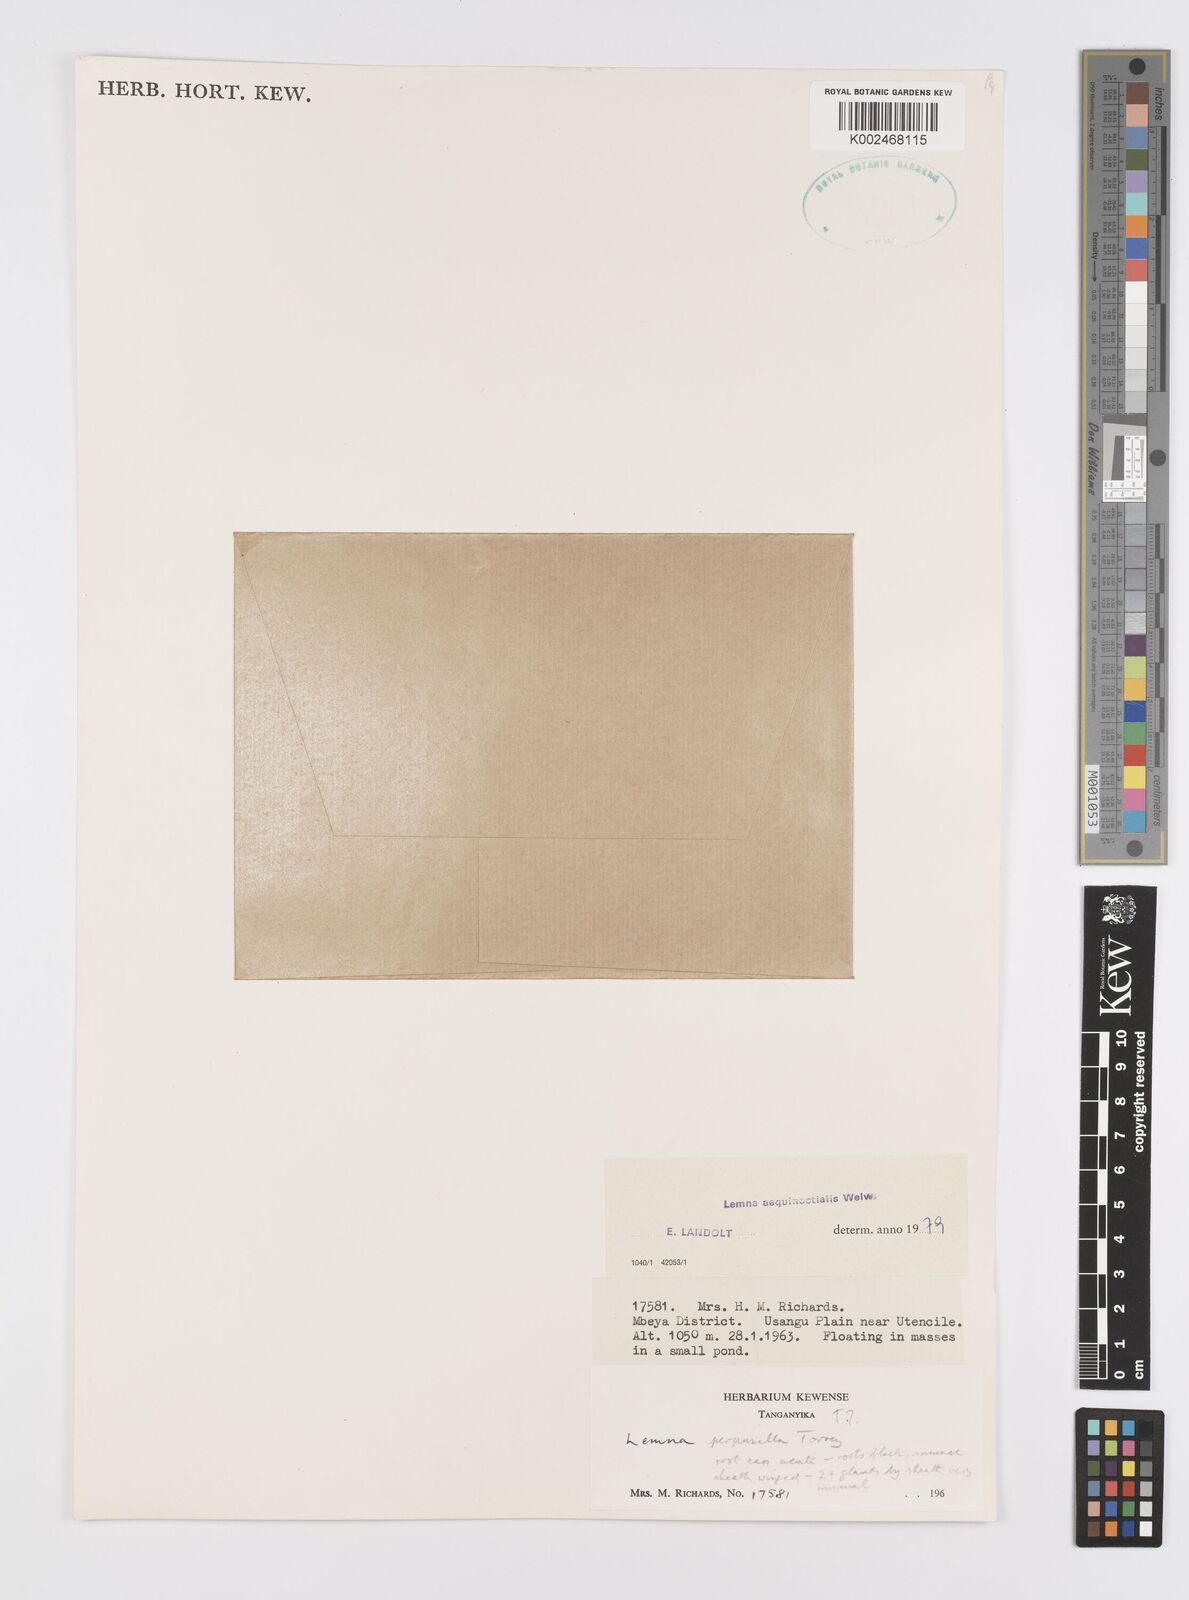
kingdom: Plantae
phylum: Tracheophyta
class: Liliopsida
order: Alismatales
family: Araceae
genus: Lemna
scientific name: Lemna aequinoctialis
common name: Duckweed
